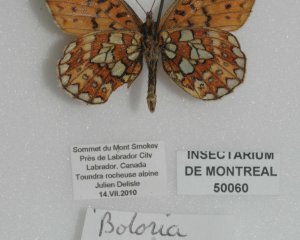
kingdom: Animalia
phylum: Arthropoda
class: Insecta
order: Lepidoptera
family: Nymphalidae
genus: Boloria
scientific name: Boloria eunomia
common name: Bog Fritillary
